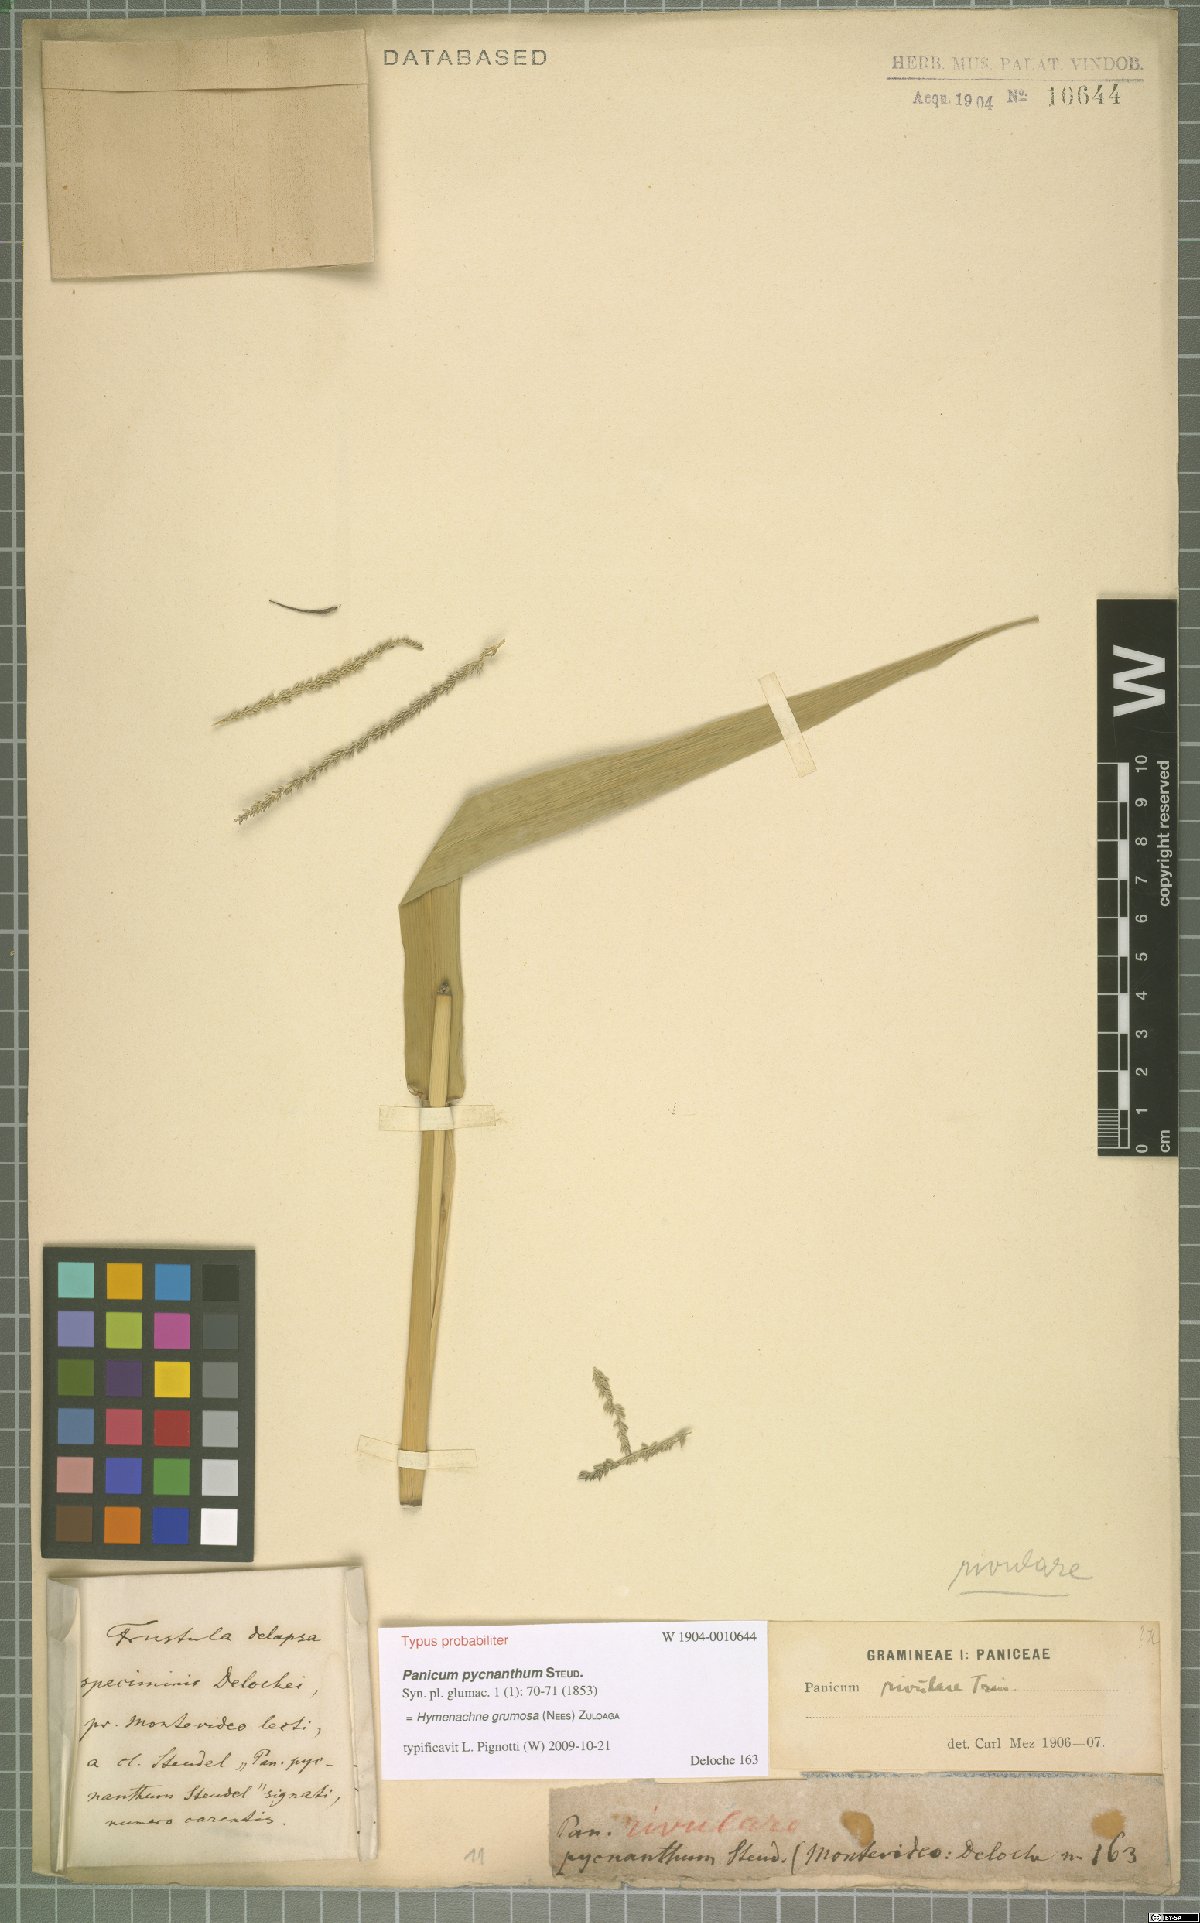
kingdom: Plantae
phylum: Tracheophyta
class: Liliopsida
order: Poales
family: Poaceae
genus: Hymenachne
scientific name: Hymenachne grumosa
